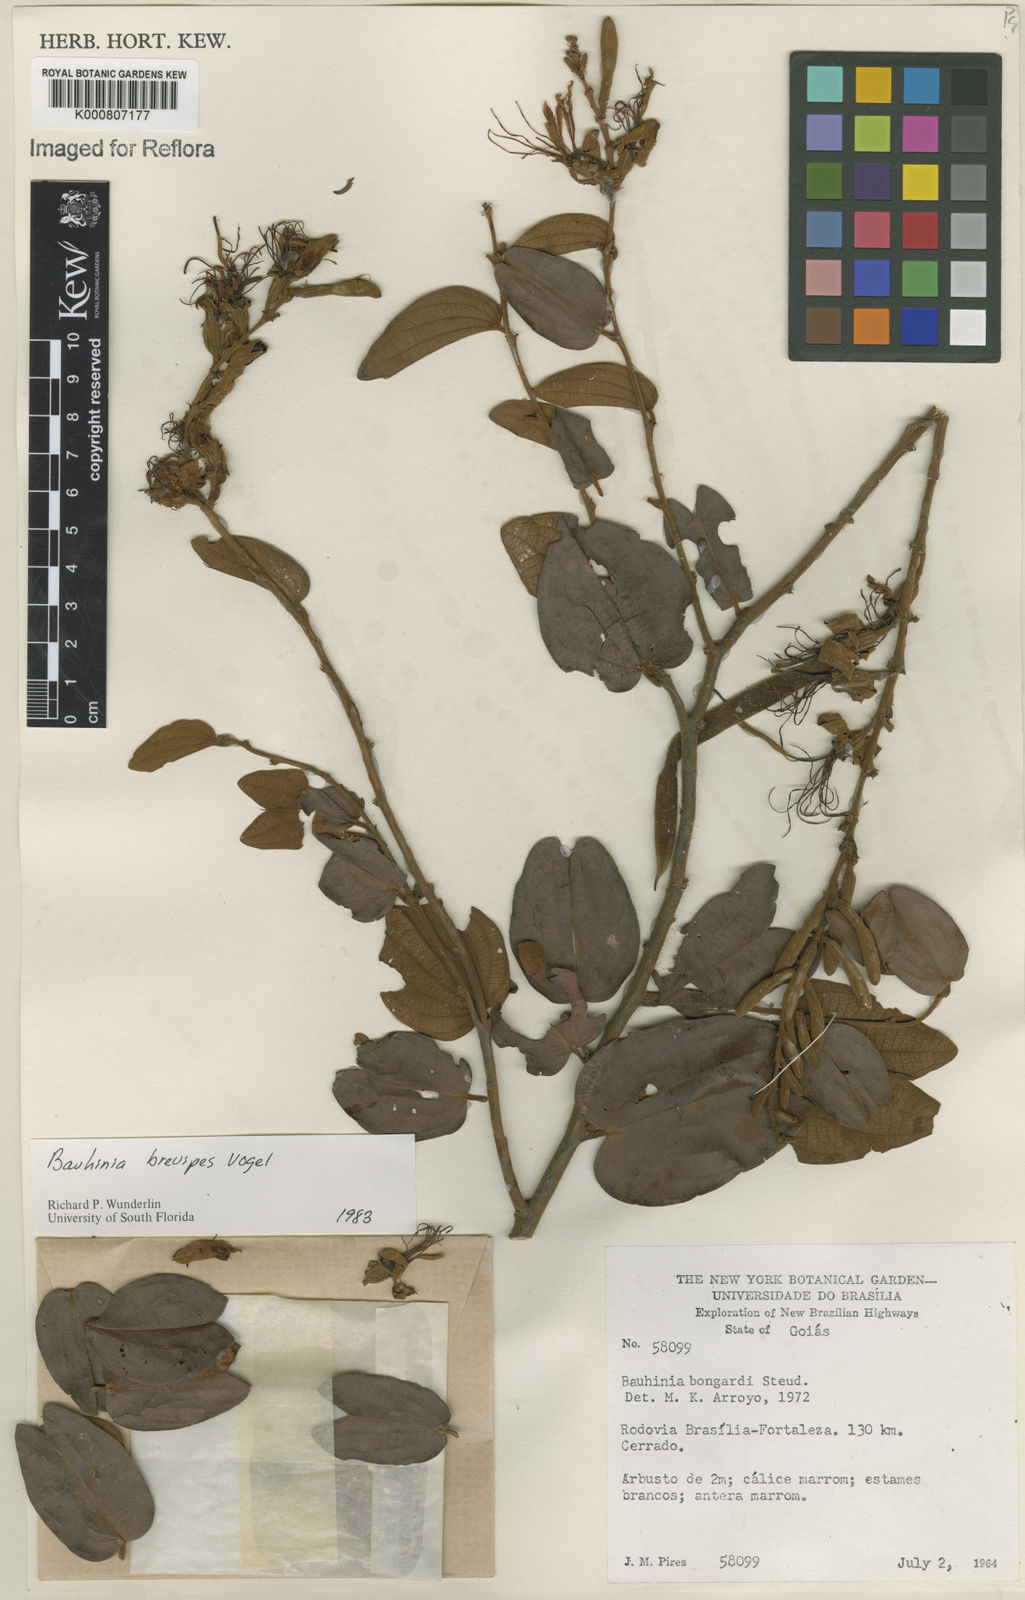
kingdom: Plantae
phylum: Tracheophyta
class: Magnoliopsida
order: Fabales
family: Fabaceae
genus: Bauhinia
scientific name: Bauhinia brevipes
